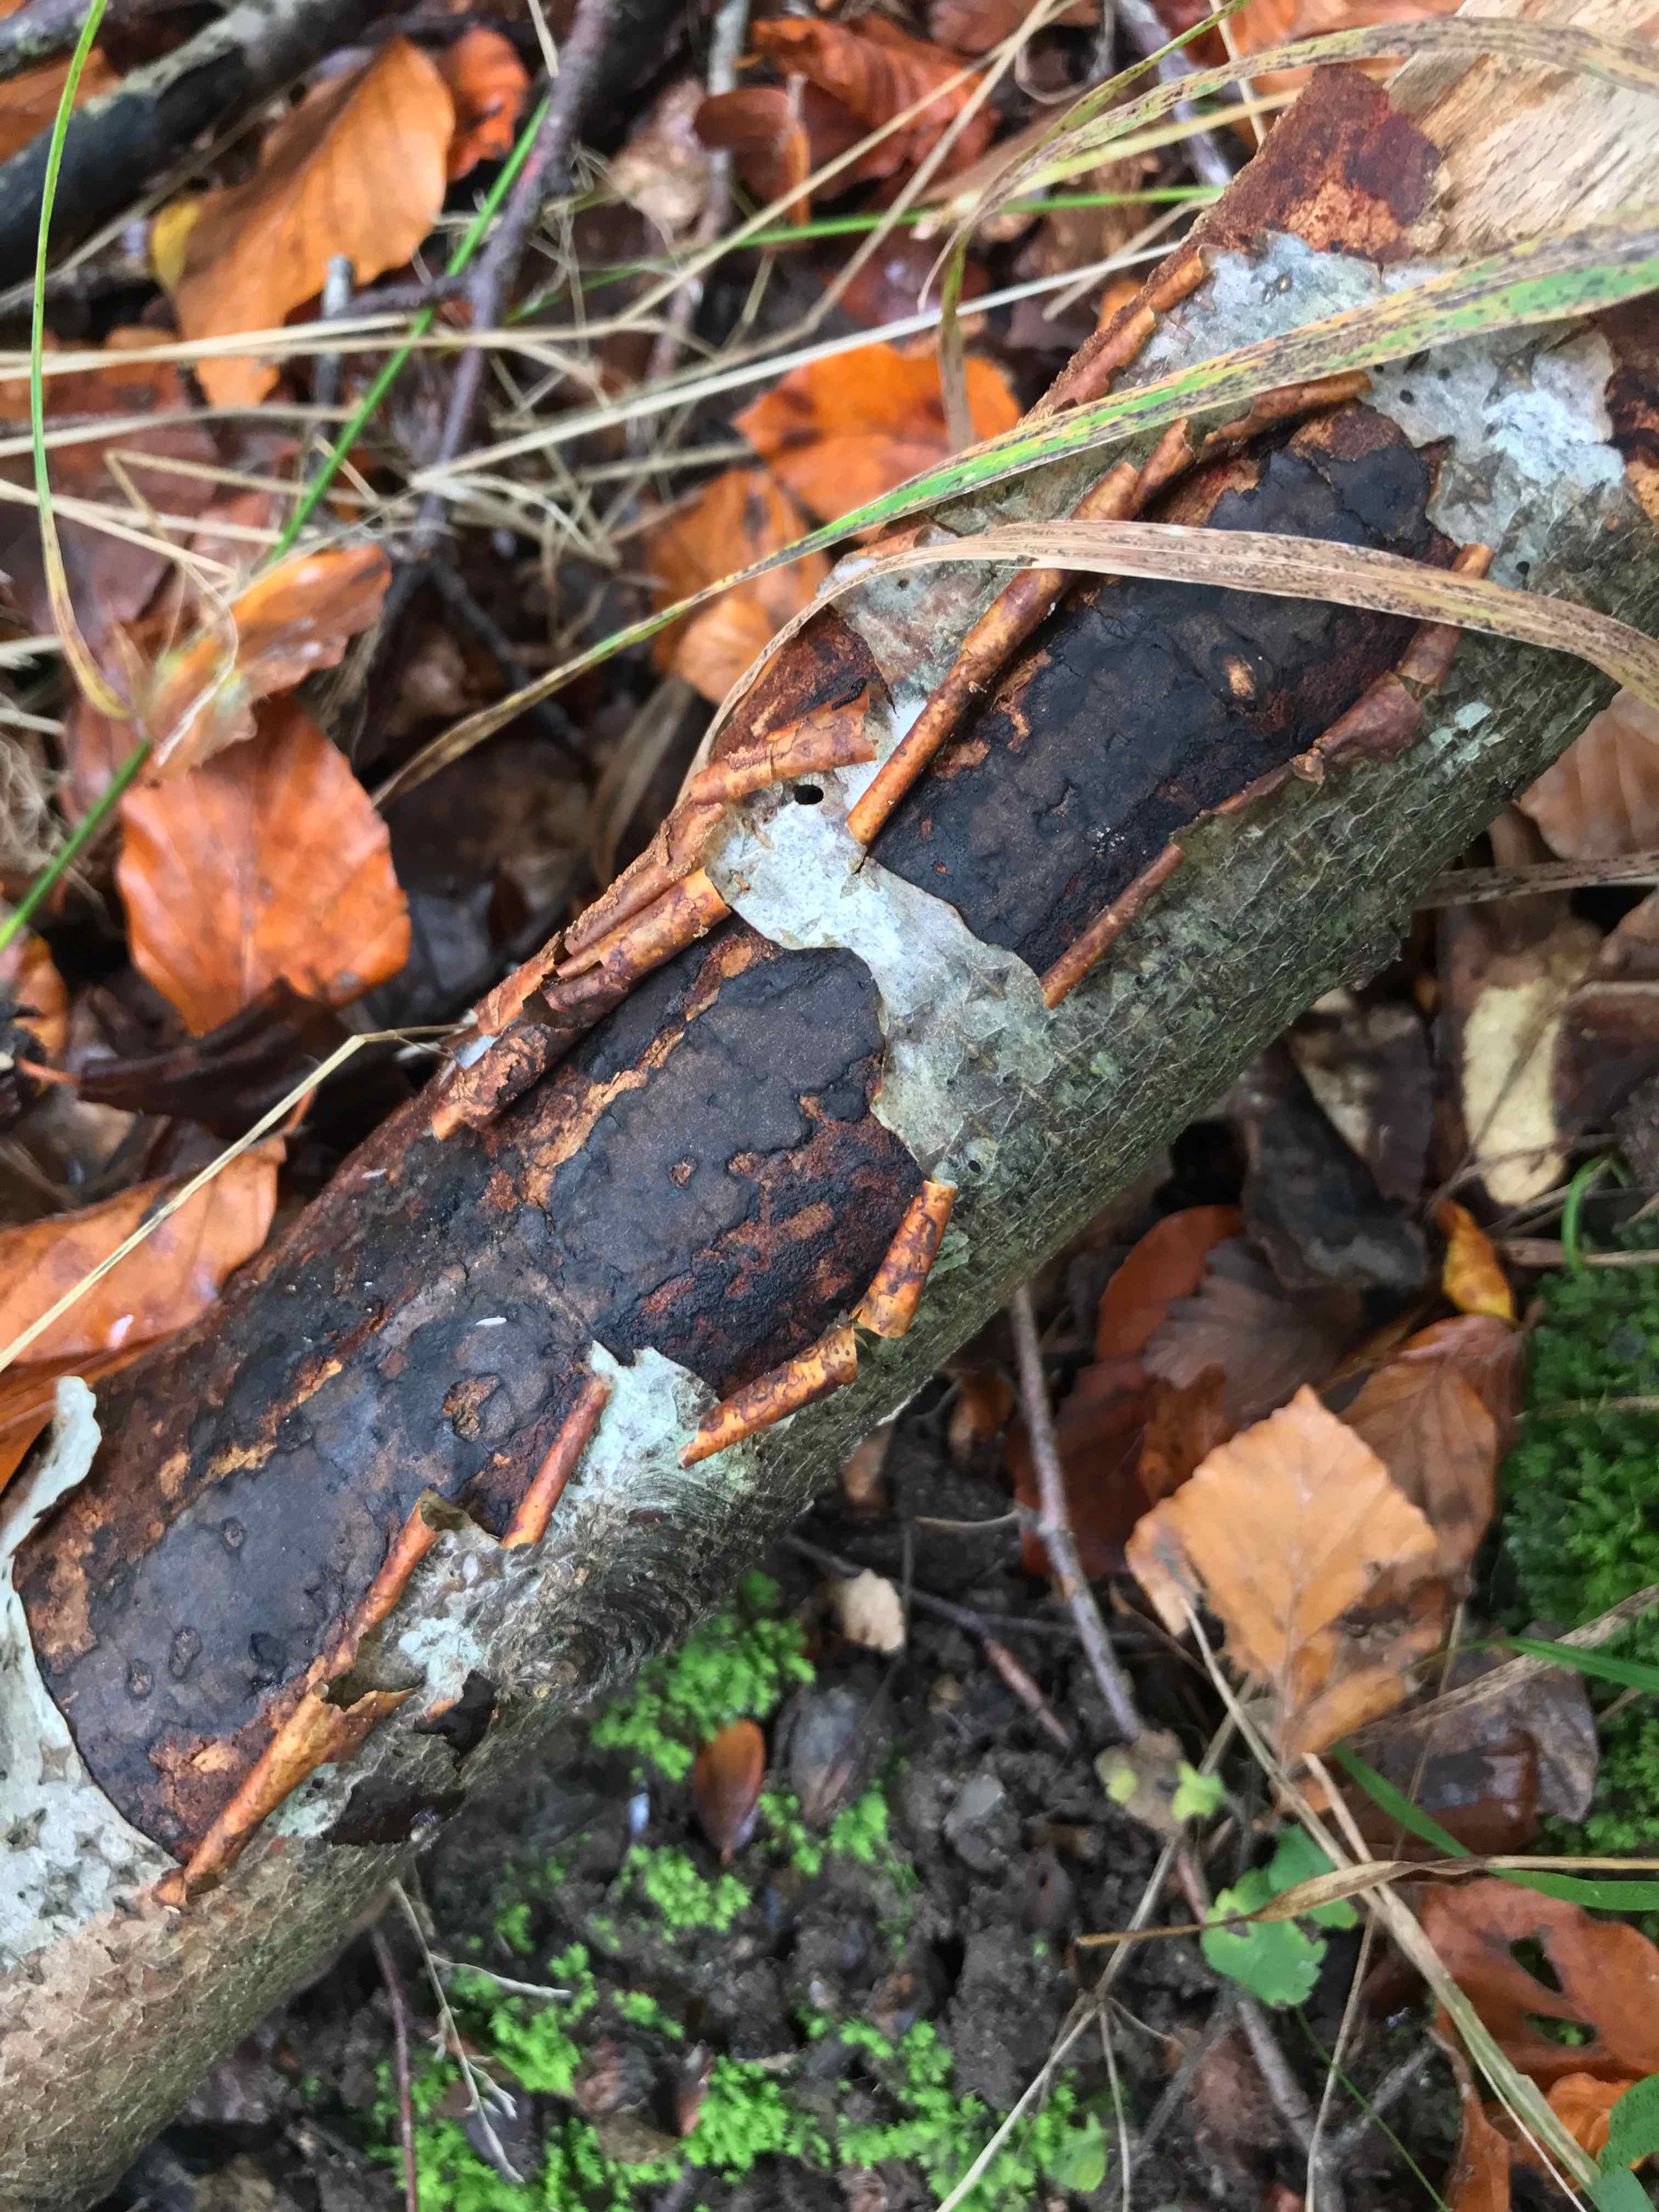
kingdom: Fungi
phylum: Ascomycota
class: Sordariomycetes
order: Xylariales
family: Diatrypaceae
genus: Diatrype
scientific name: Diatrype decorticata
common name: barksprænger-kulskorpe
